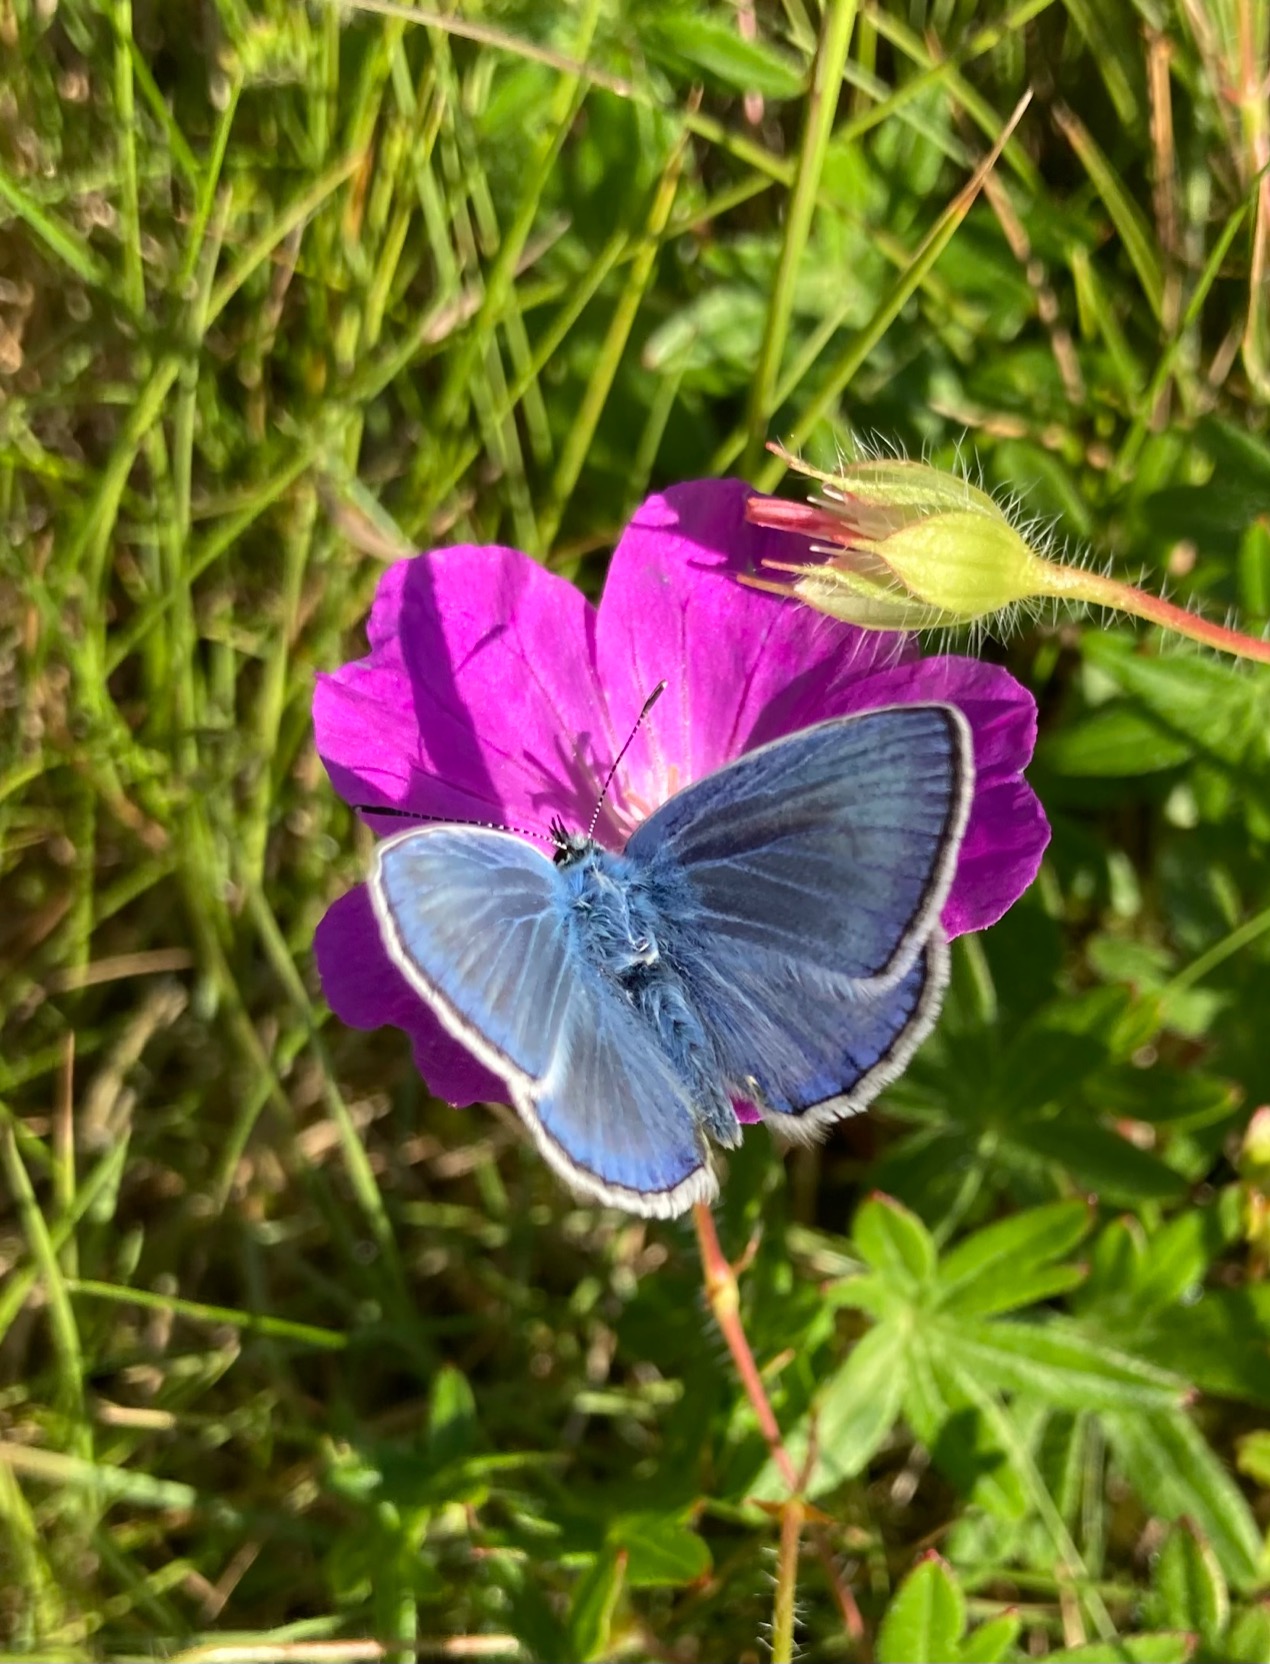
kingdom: Animalia
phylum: Arthropoda
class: Insecta
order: Lepidoptera
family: Lycaenidae
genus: Polyommatus
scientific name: Polyommatus icarus
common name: Almindelig blåfugl
